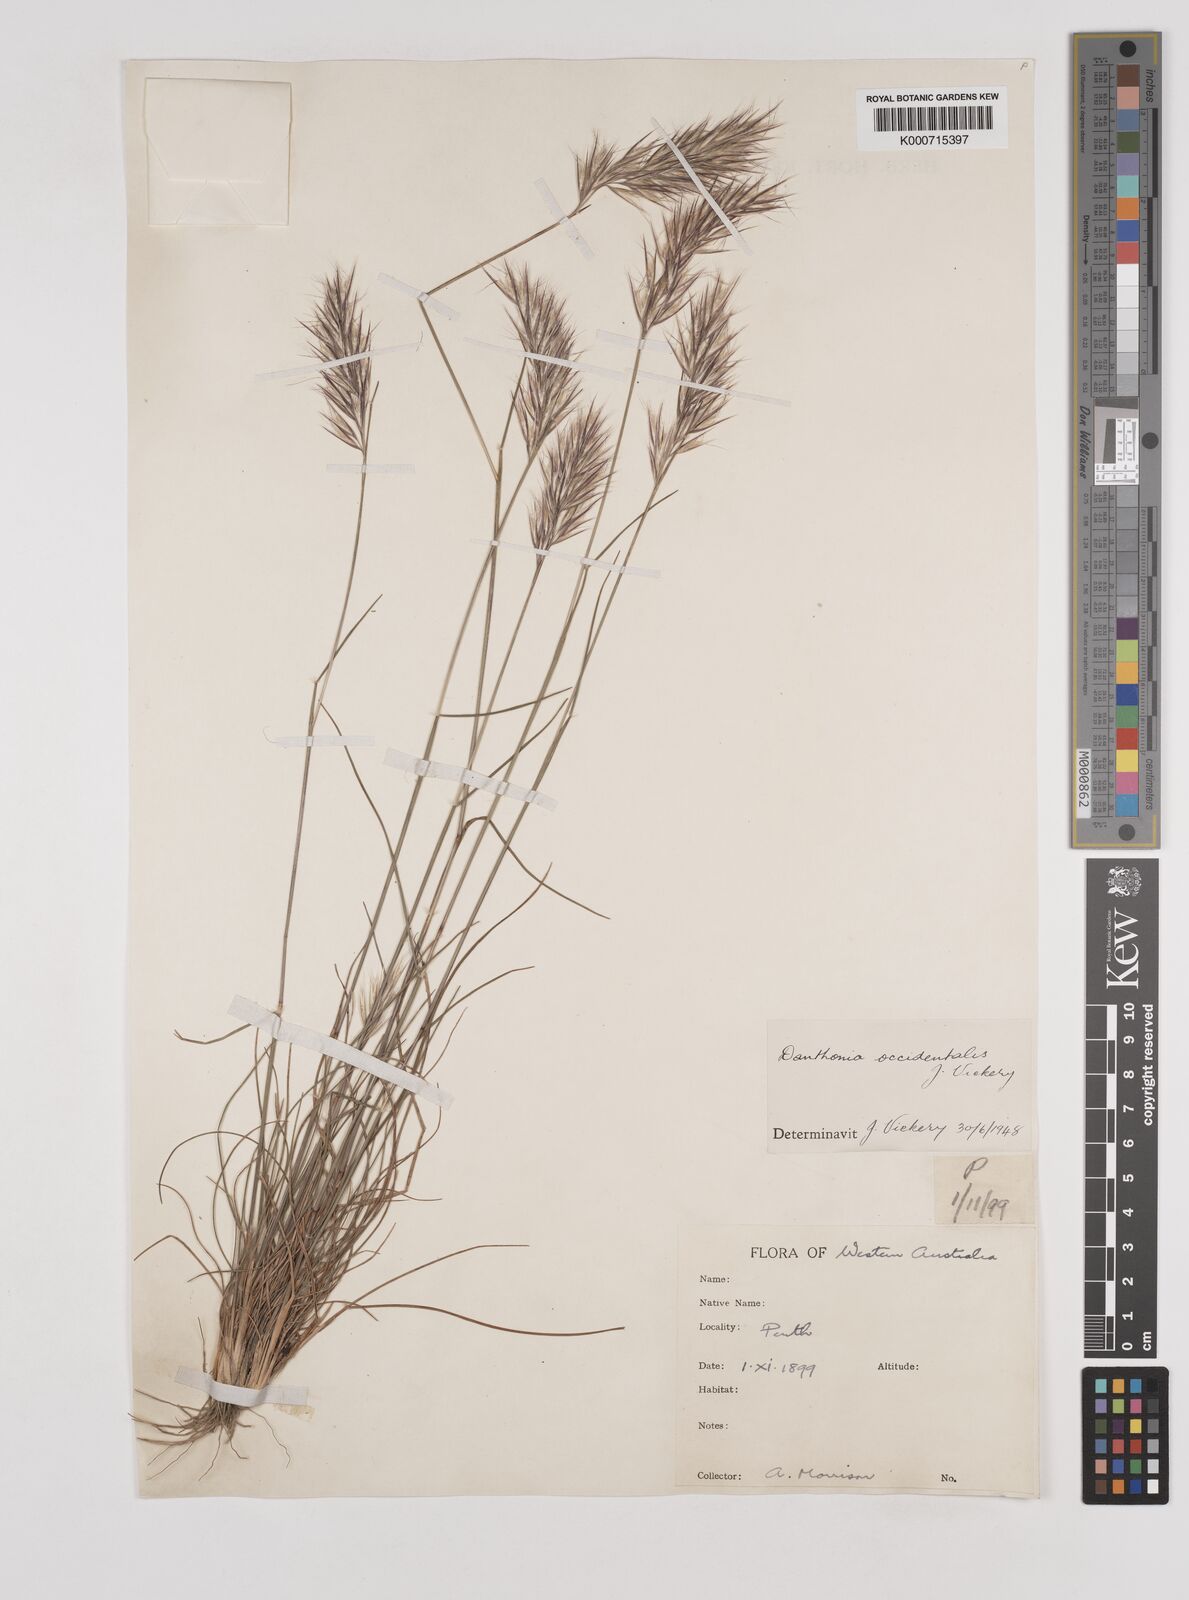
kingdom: Plantae
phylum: Tracheophyta
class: Liliopsida
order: Poales
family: Poaceae
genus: Rytidosperma
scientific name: Rytidosperma occidentale
